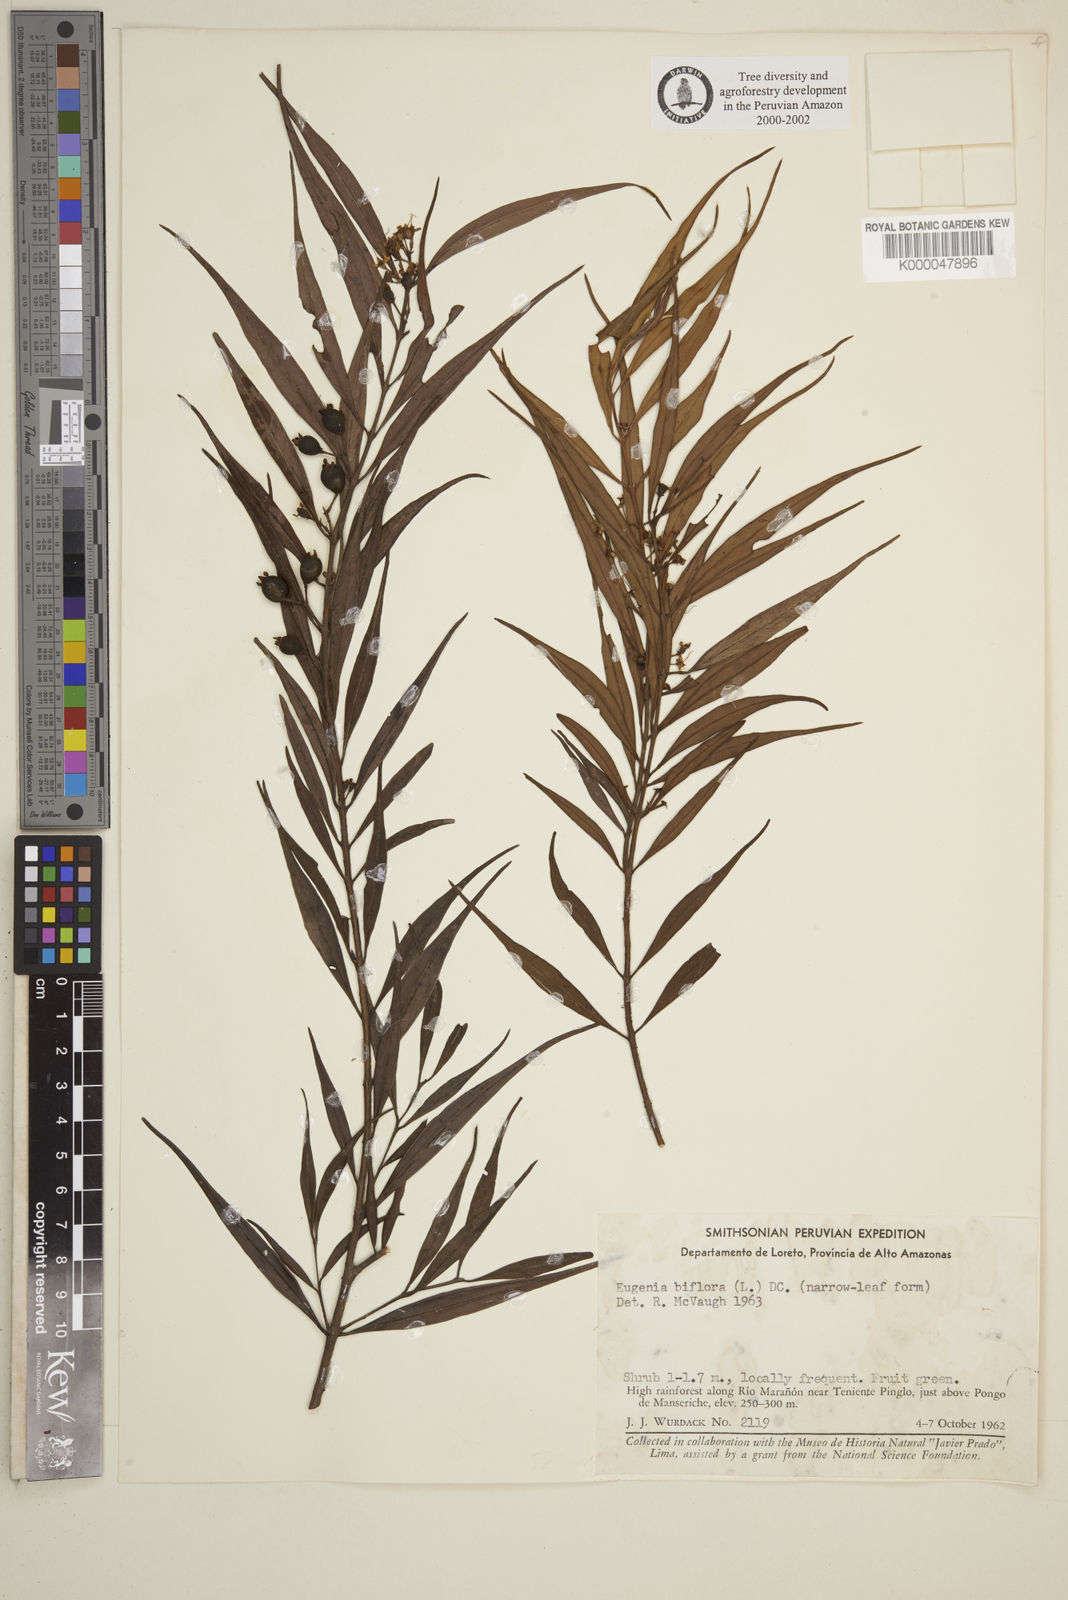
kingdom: Plantae
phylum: Tracheophyta
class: Magnoliopsida
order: Myrtales
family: Myrtaceae
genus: Eugenia
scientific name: Eugenia biflora
